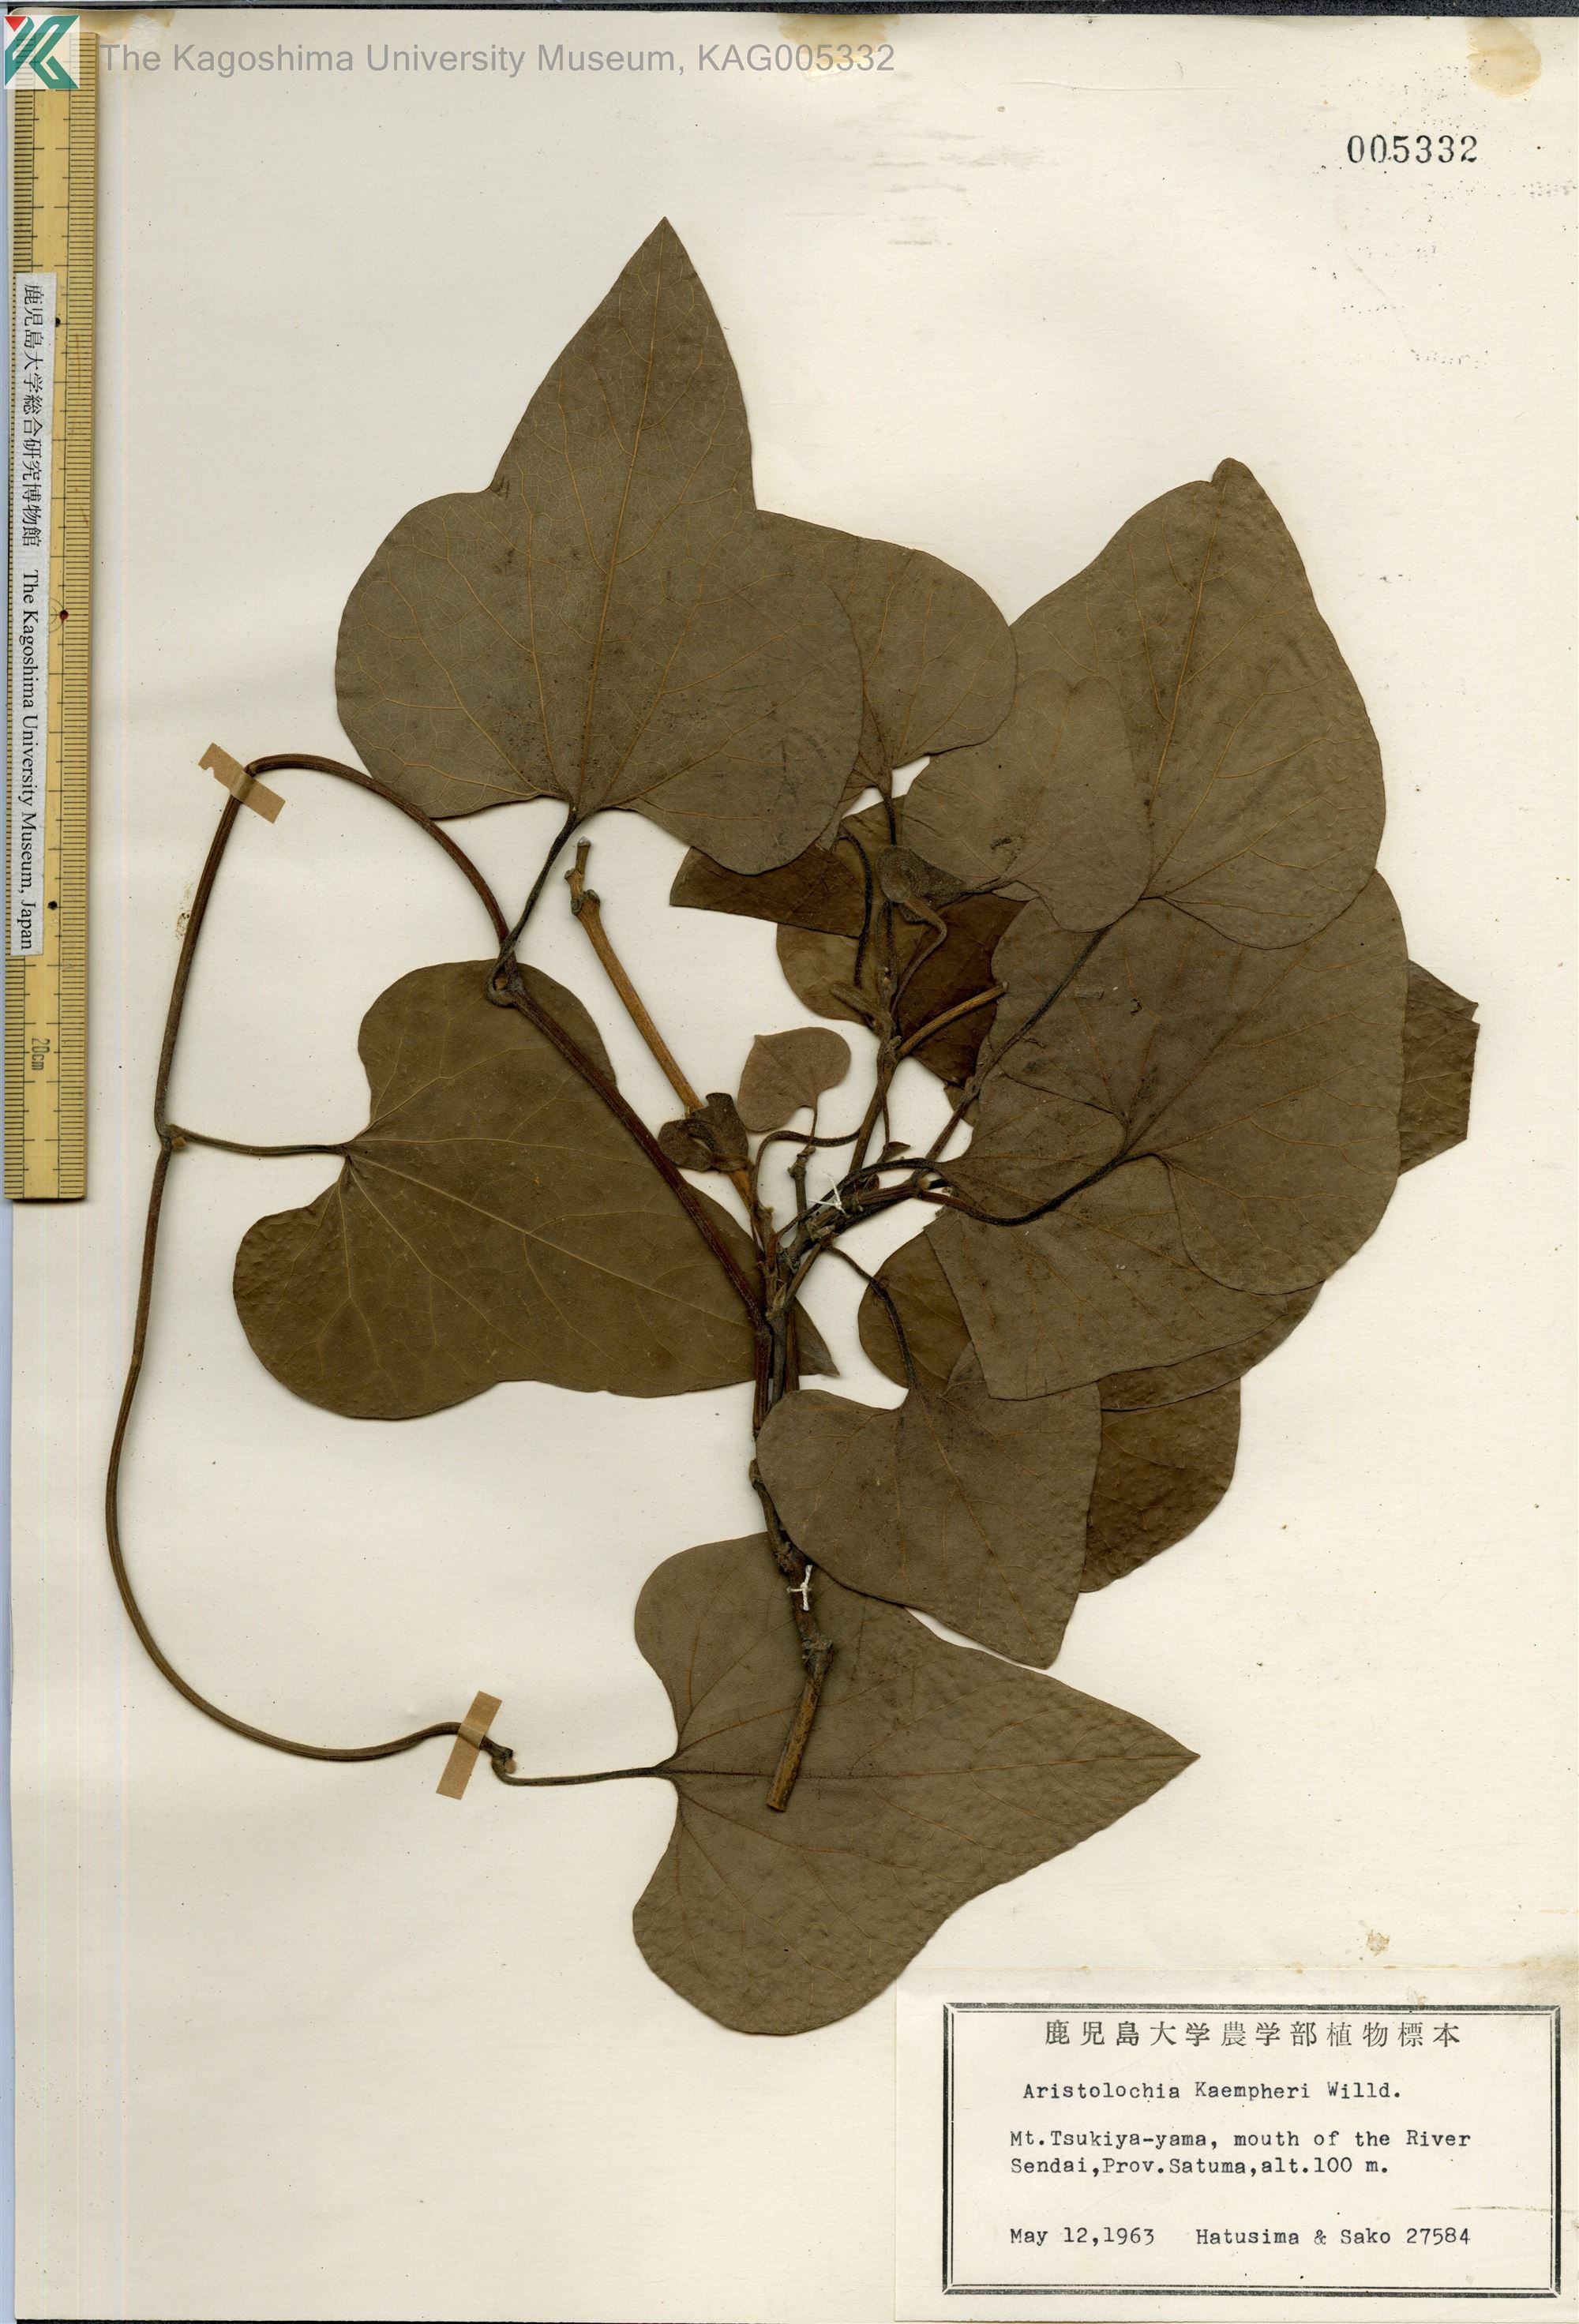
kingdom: Plantae
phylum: Tracheophyta
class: Magnoliopsida
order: Piperales
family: Aristolochiaceae
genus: Isotrema
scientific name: Isotrema kaempferi
